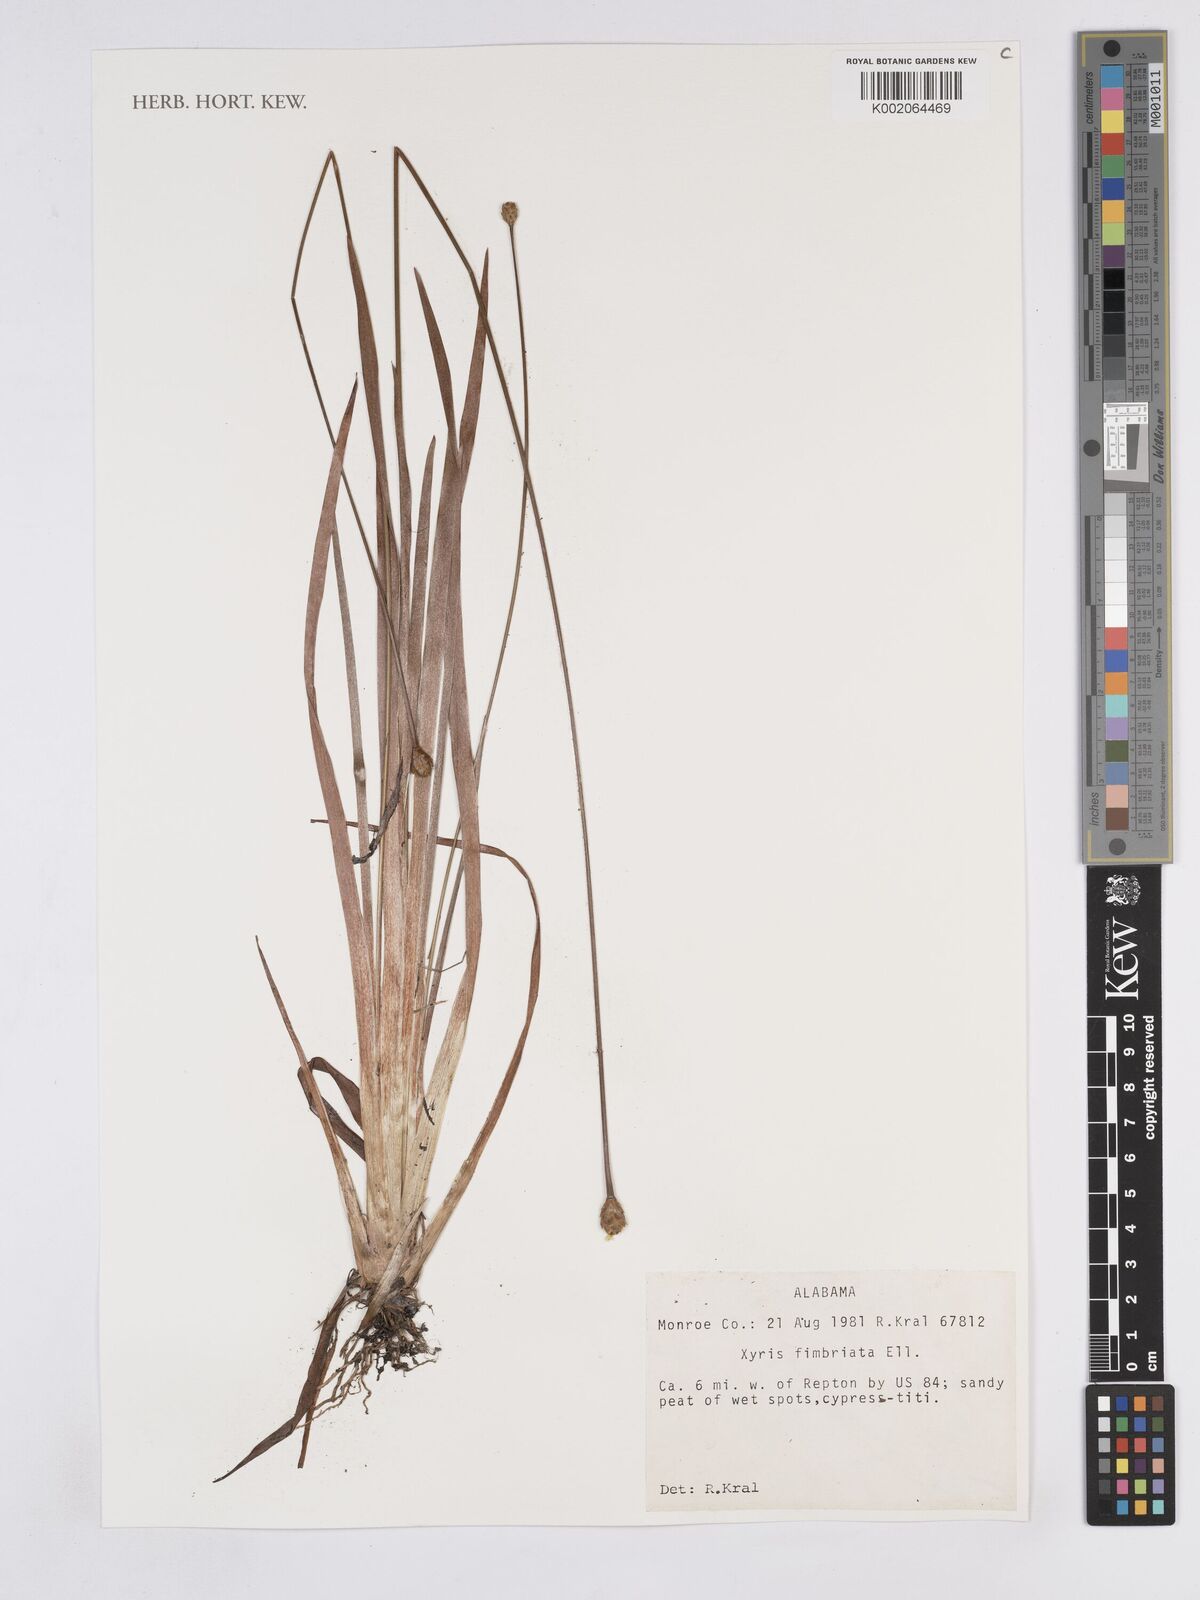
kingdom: Plantae
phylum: Tracheophyta
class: Liliopsida
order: Poales
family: Xyridaceae
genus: Xyris
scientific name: Xyris fimbriata
